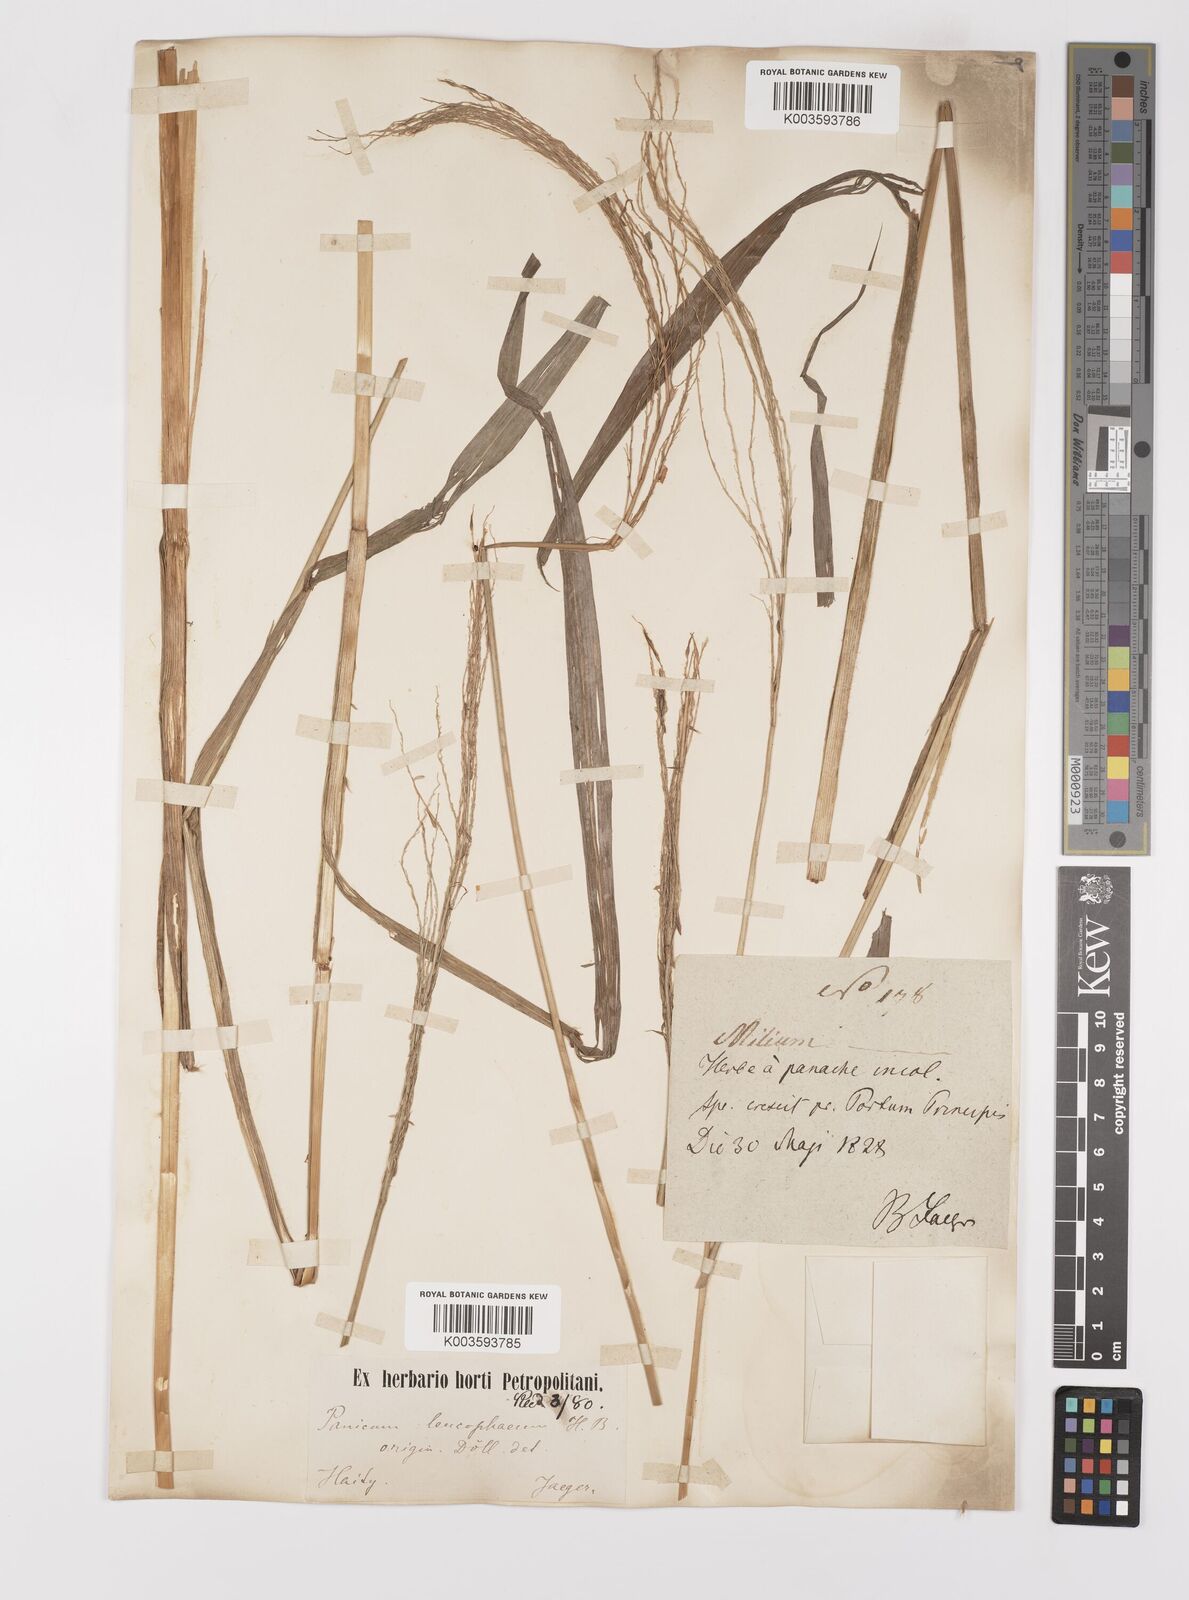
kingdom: Plantae
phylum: Tracheophyta
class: Liliopsida
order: Poales
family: Poaceae
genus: Digitaria
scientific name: Digitaria insularis
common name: Sourgrass
